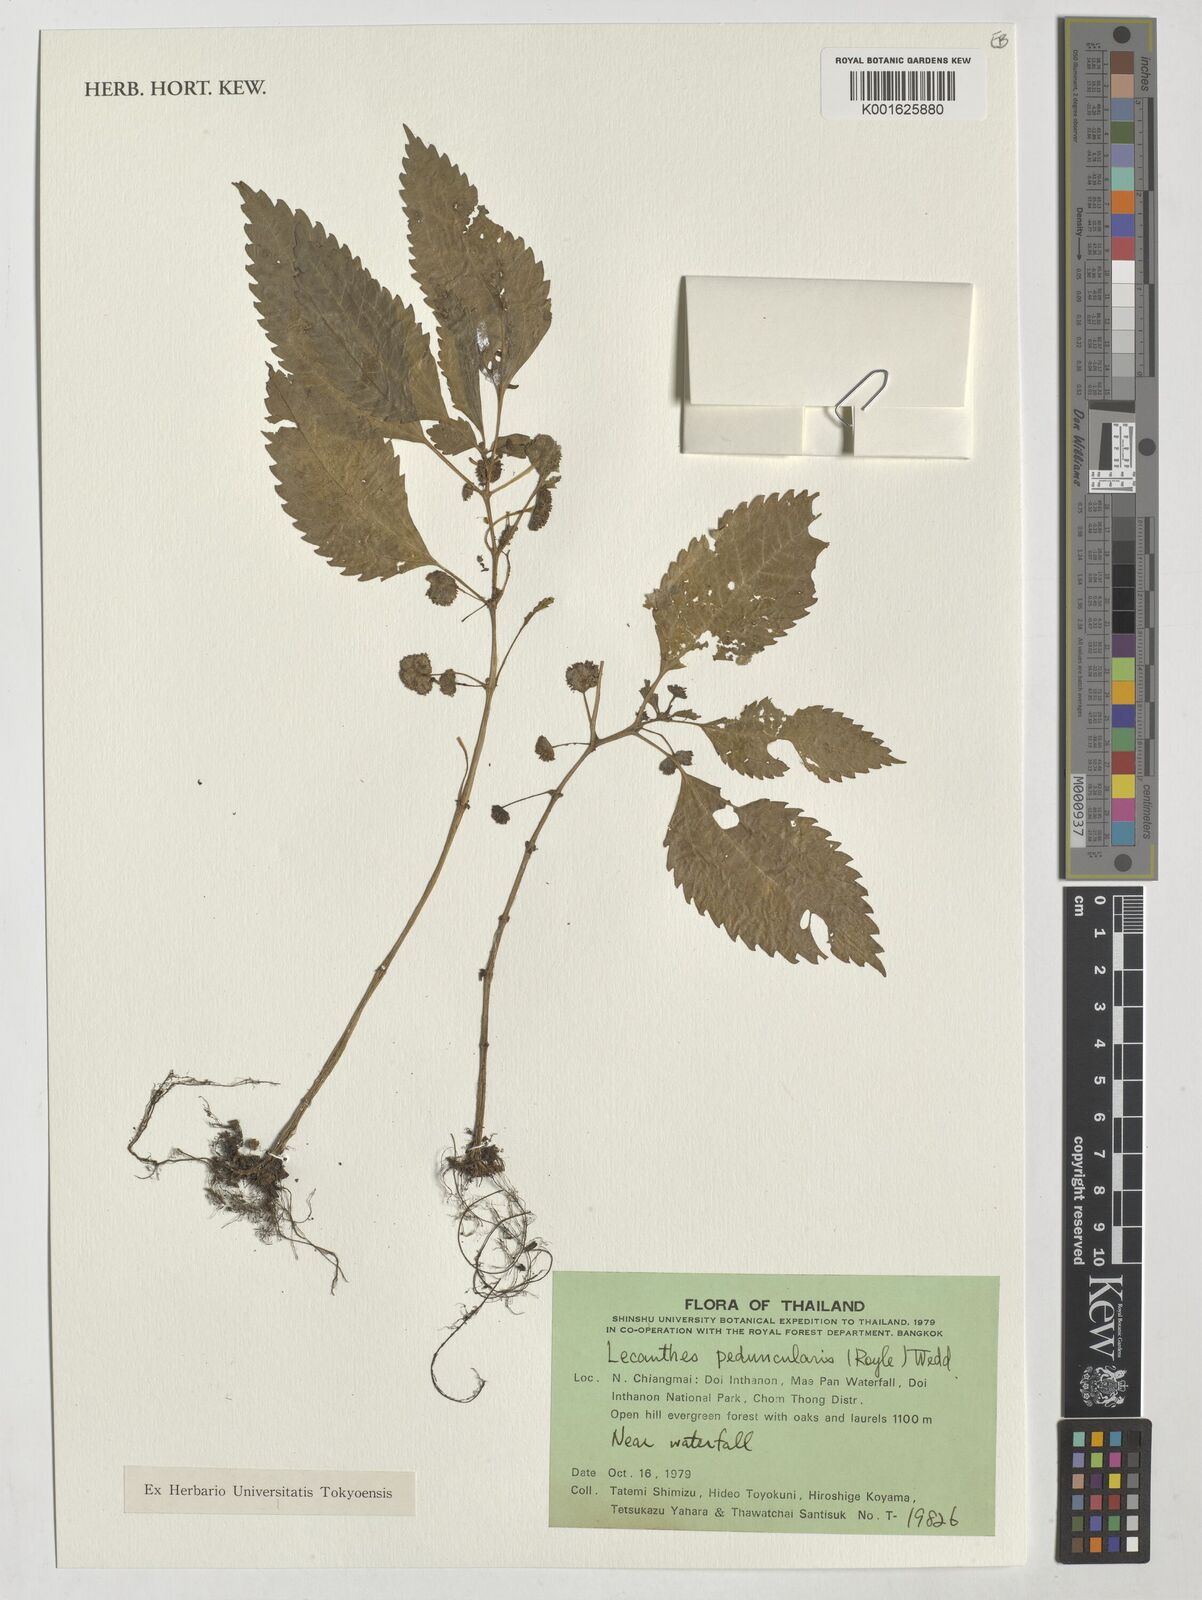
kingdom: Plantae
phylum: Tracheophyta
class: Magnoliopsida
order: Rosales
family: Urticaceae
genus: Lecanthus
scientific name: Lecanthus peduncularis
